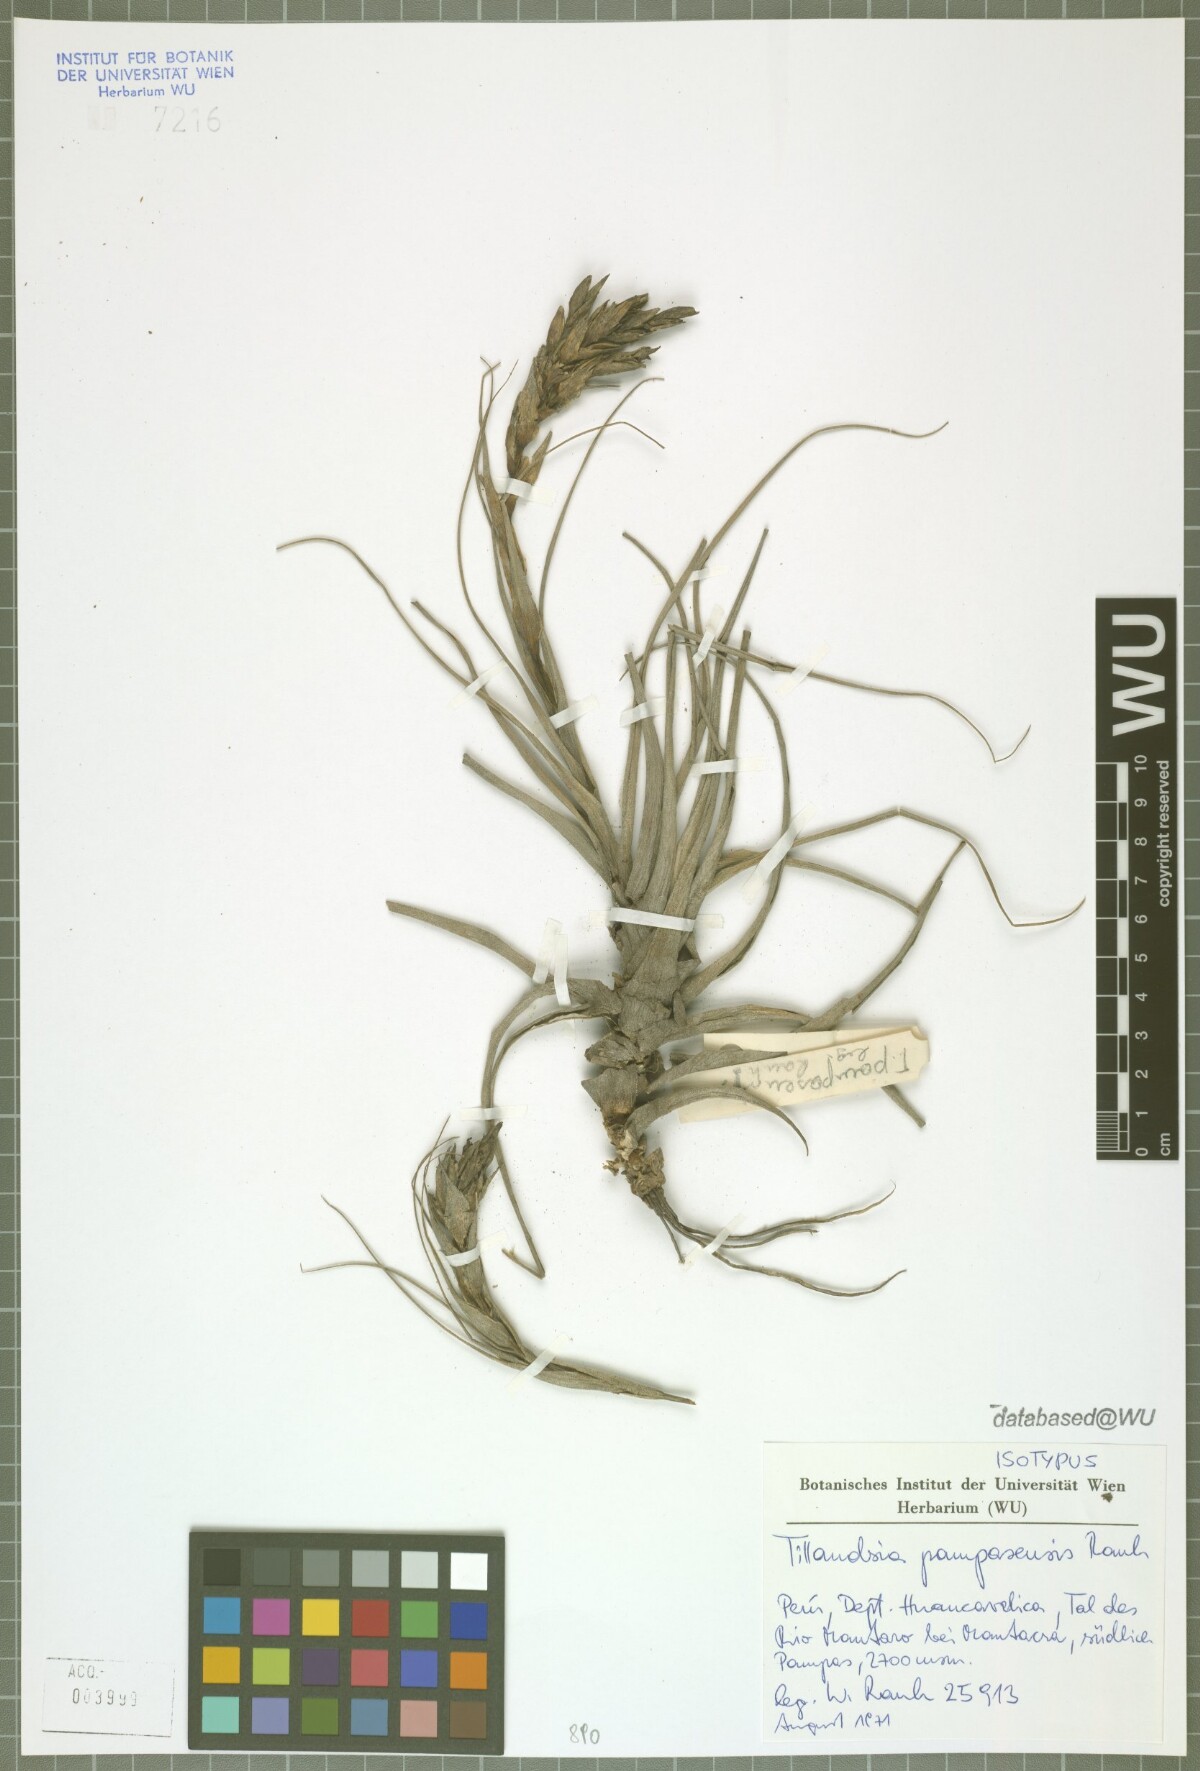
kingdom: Plantae
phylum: Tracheophyta
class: Liliopsida
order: Poales
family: Bromeliaceae
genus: Tillandsia
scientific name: Tillandsia pampasensis
